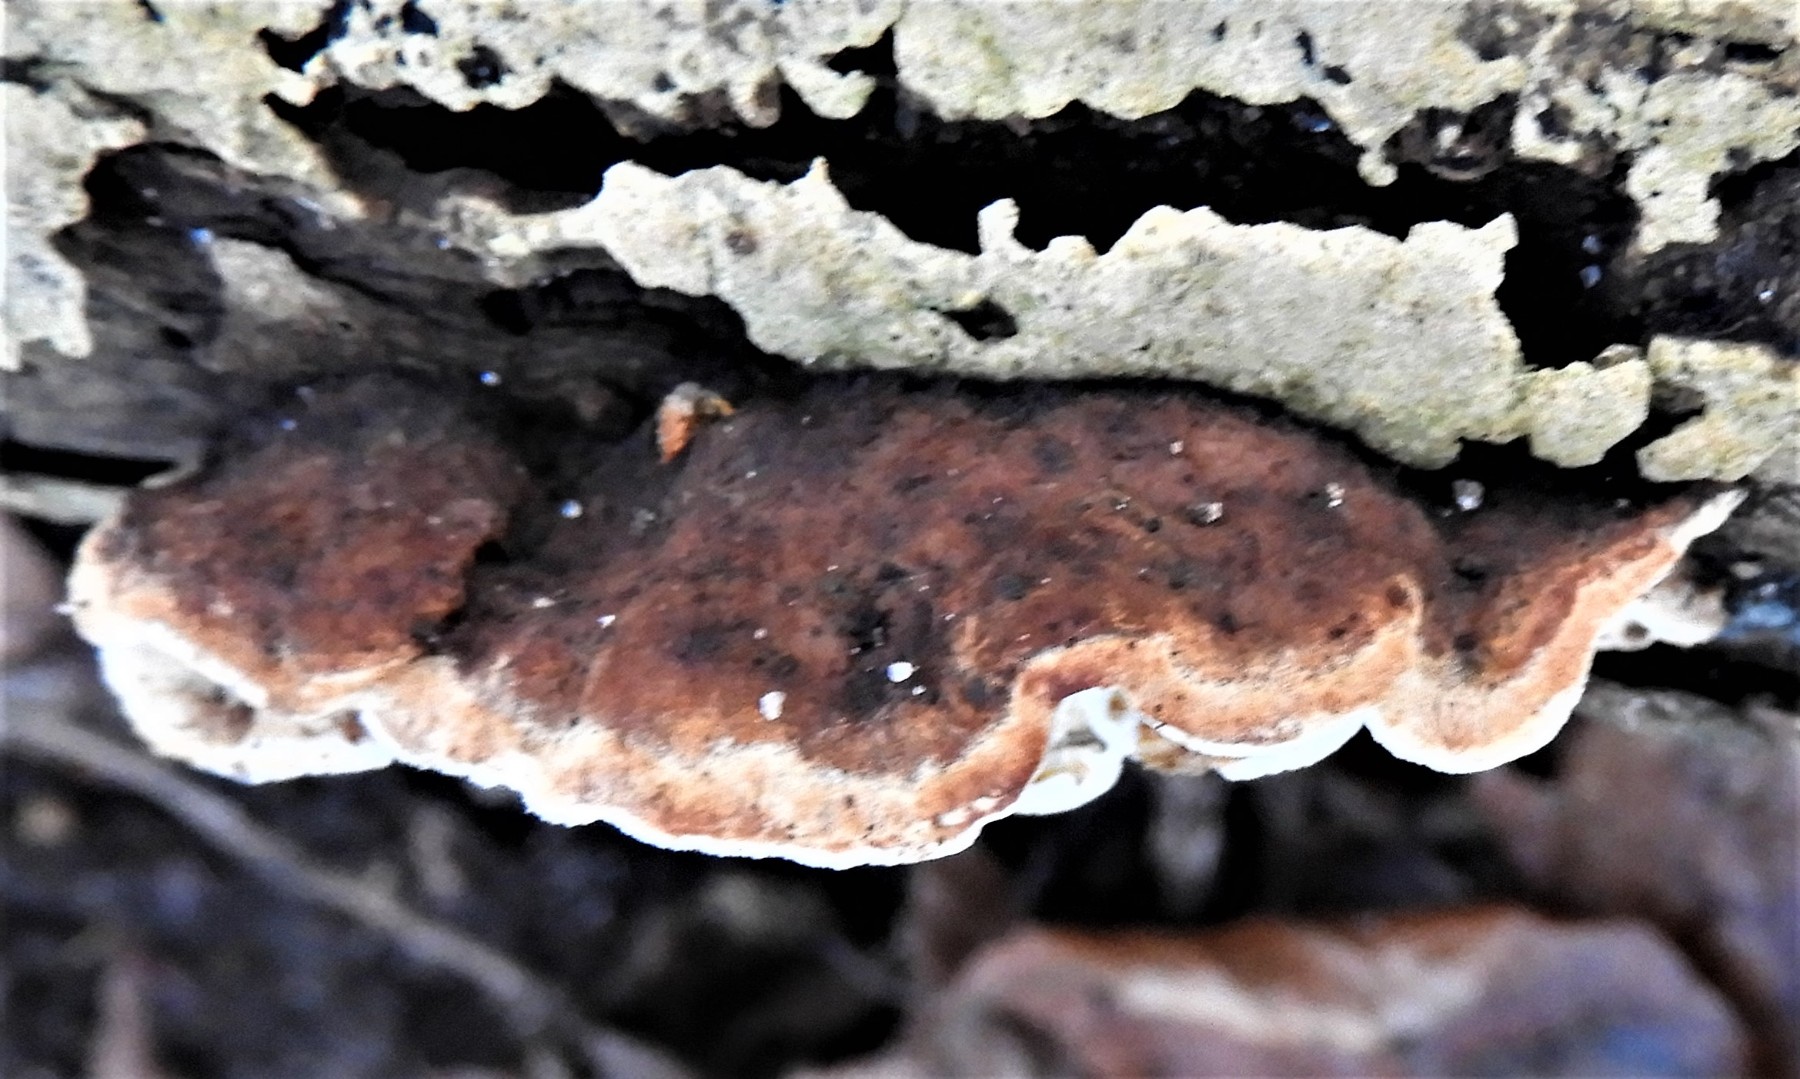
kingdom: Fungi
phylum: Basidiomycota
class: Agaricomycetes
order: Polyporales
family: Incrustoporiaceae
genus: Skeletocutis
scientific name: Skeletocutis nemoralis
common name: stor krystalporesvamp
